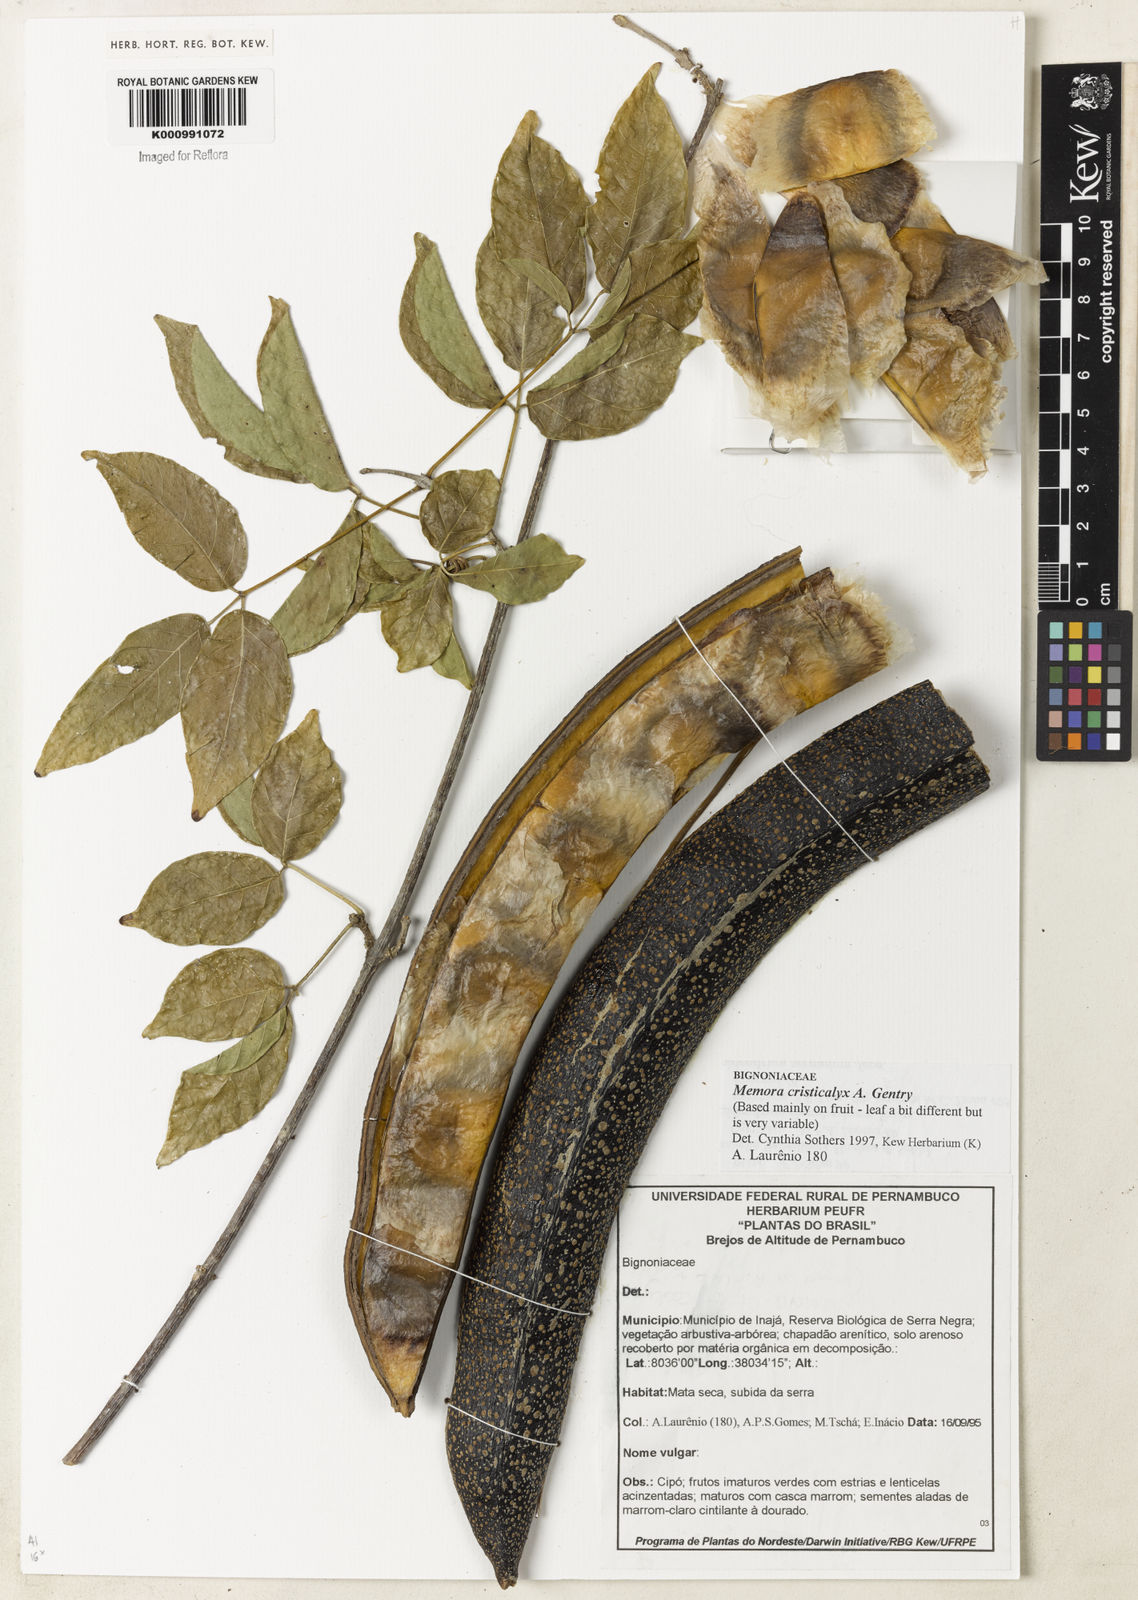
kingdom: Plantae
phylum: Tracheophyta
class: Magnoliopsida
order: Lamiales
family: Bignoniaceae
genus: Adenocalymma
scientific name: Adenocalymma cristicalyx
